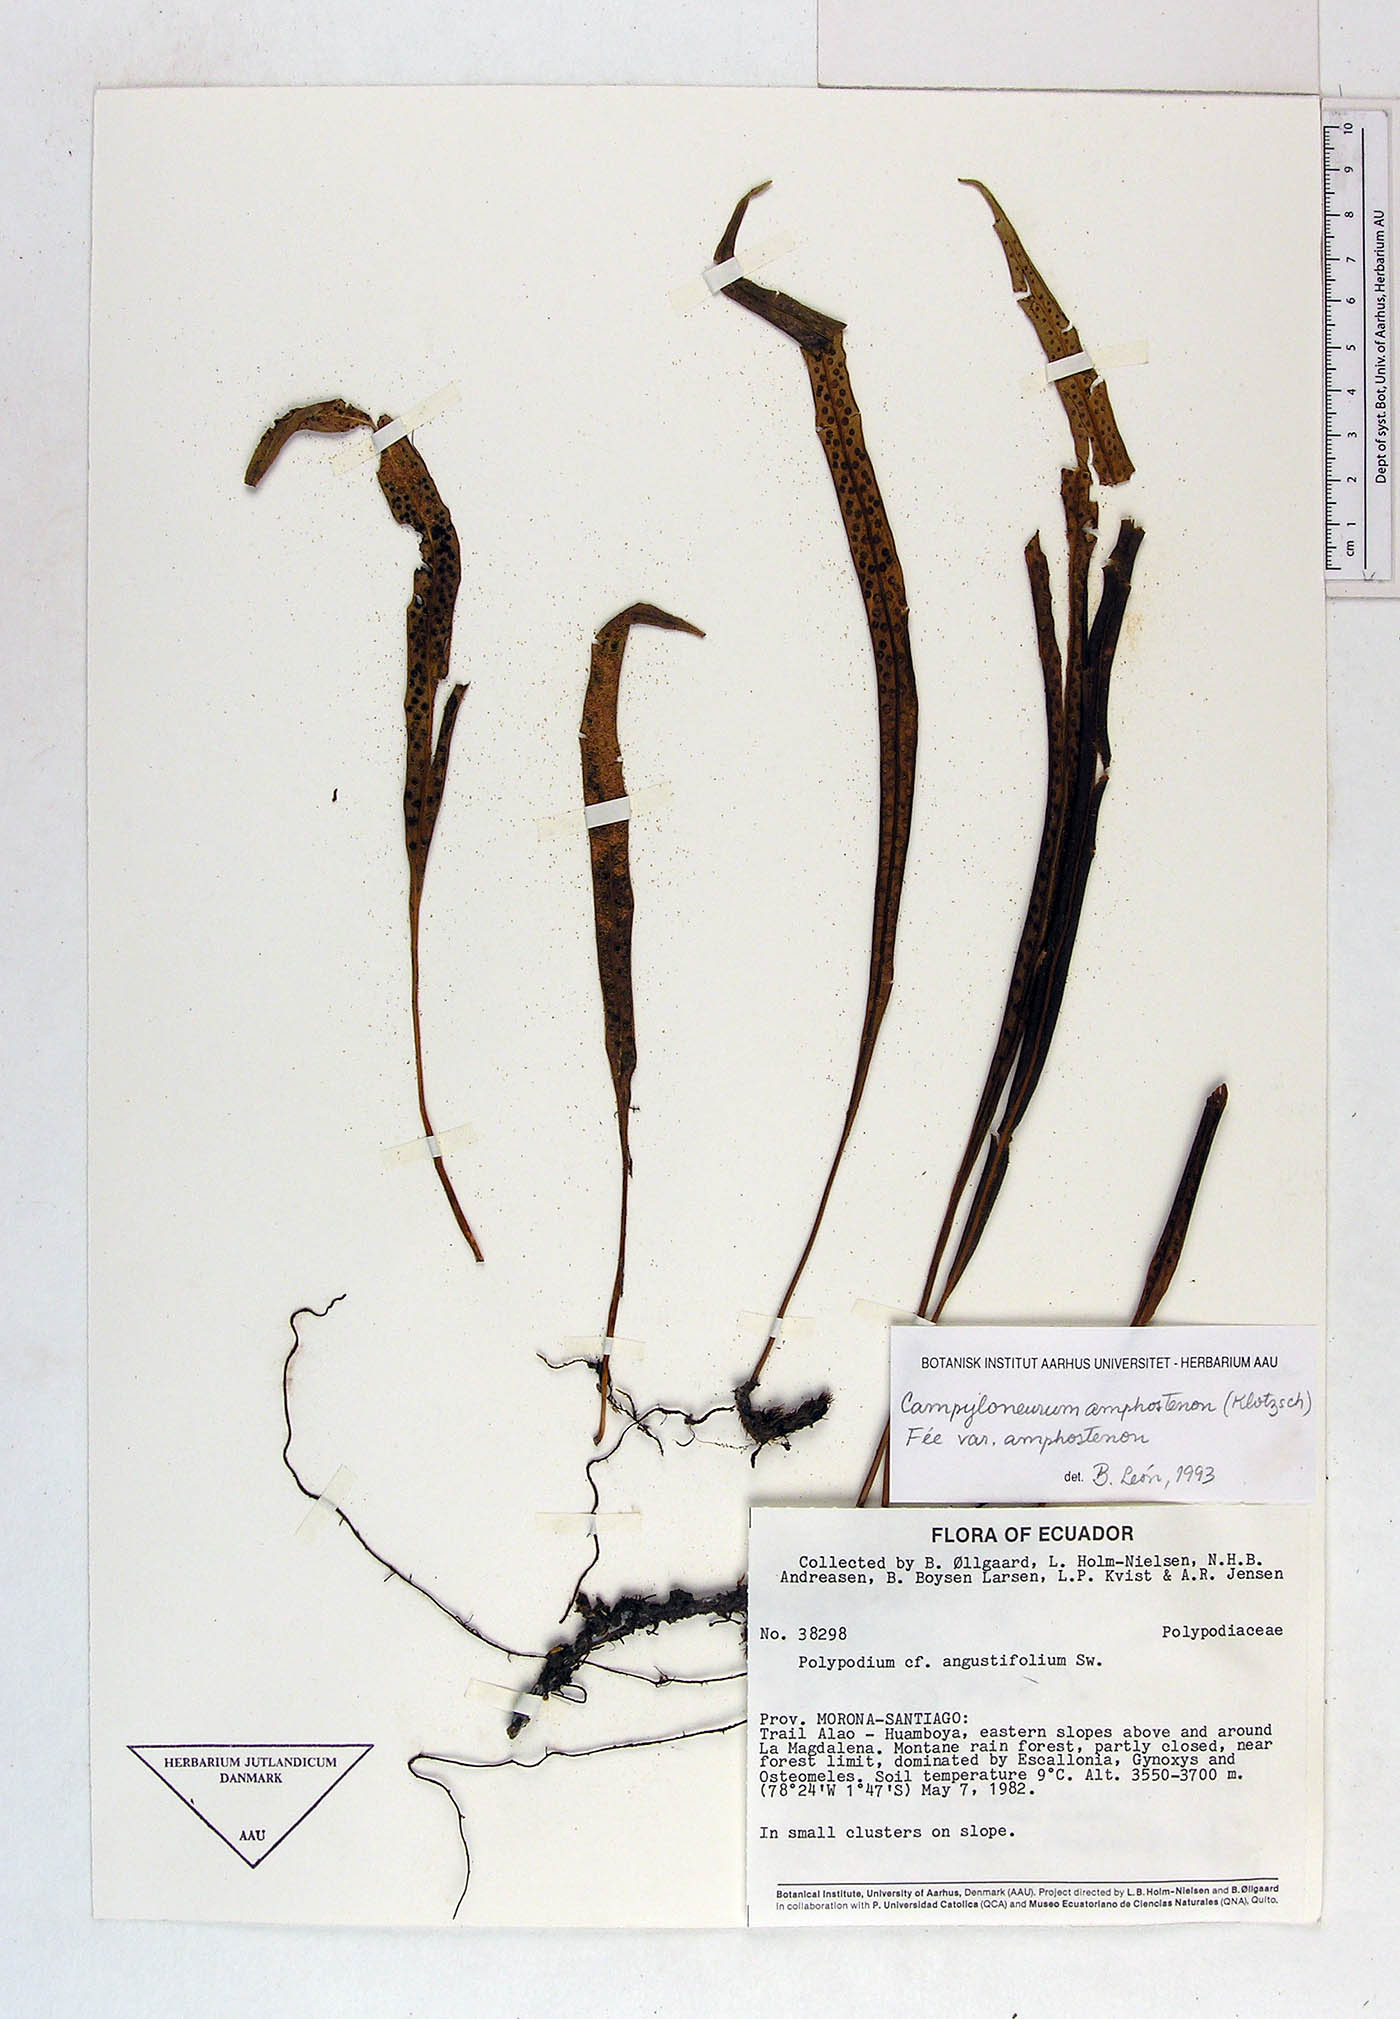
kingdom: Plantae
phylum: Tracheophyta
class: Polypodiopsida
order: Polypodiales
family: Polypodiaceae
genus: Campyloneurum
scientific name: Campyloneurum angustifolium
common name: Narrow-leaf strap fern
